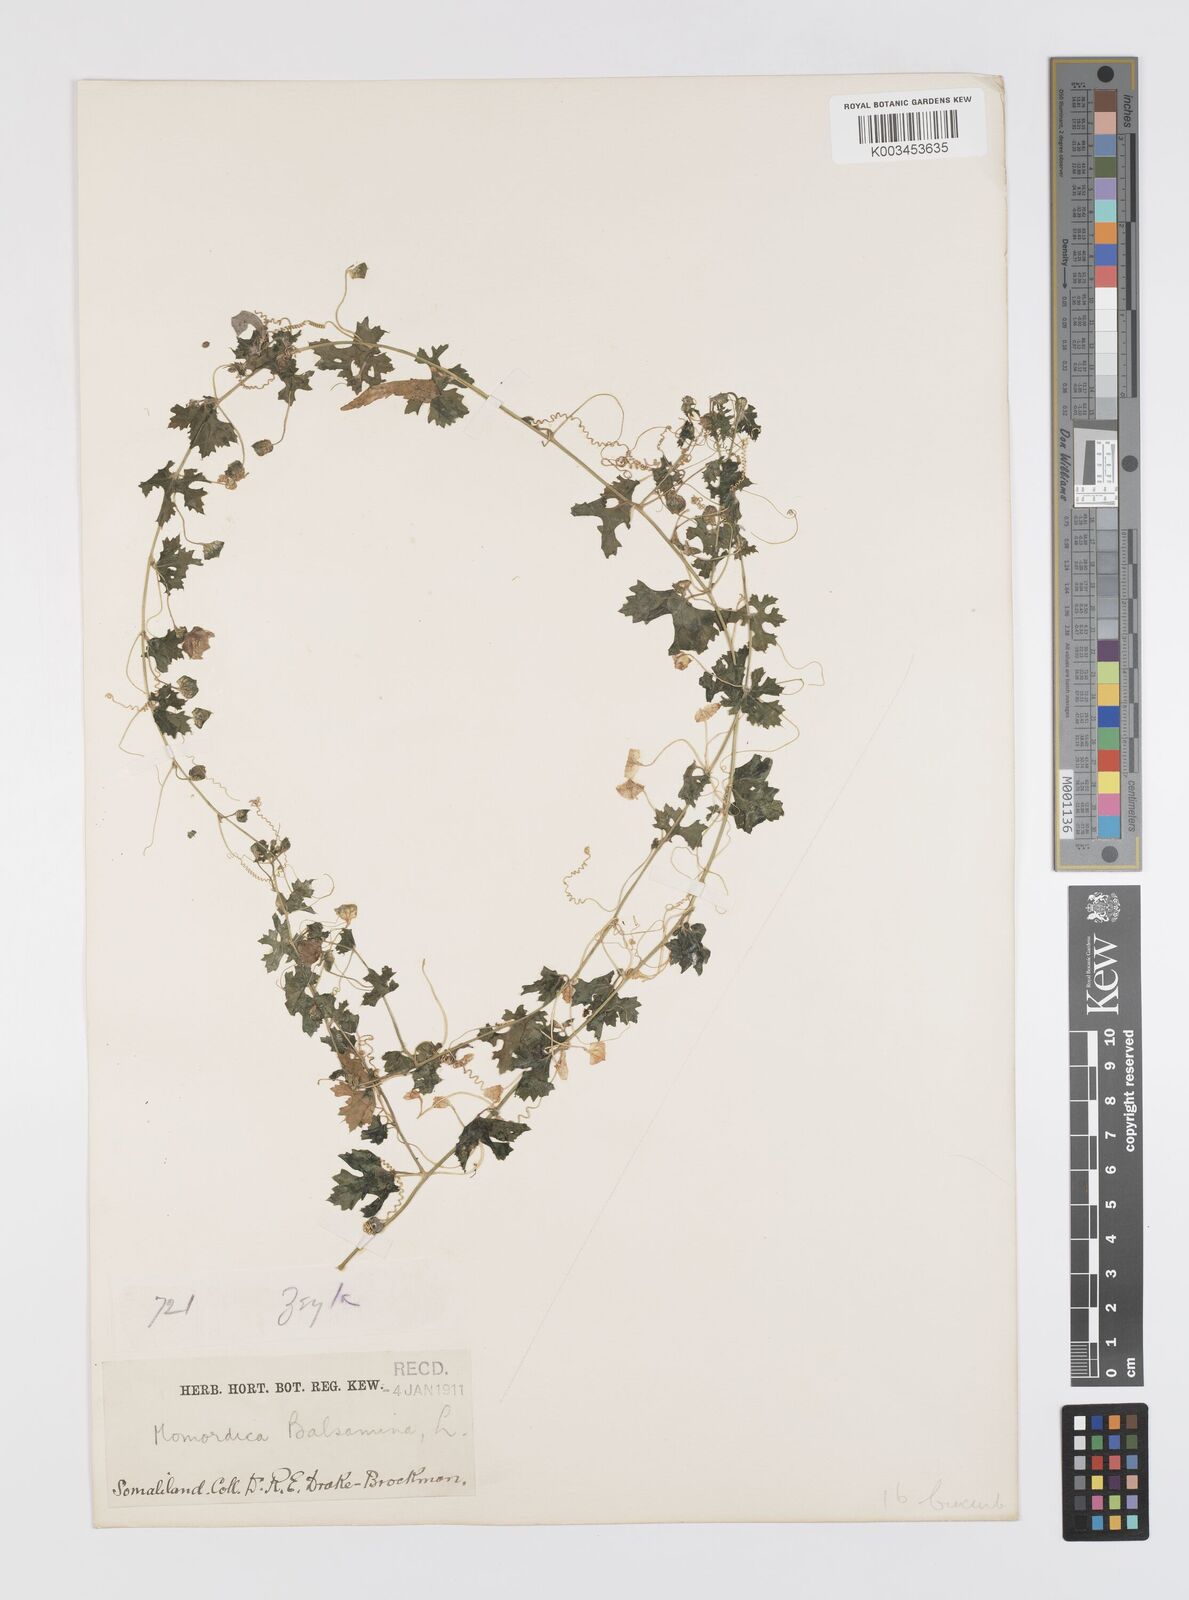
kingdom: Plantae
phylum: Tracheophyta
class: Magnoliopsida
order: Cucurbitales
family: Cucurbitaceae
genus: Momordica
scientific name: Momordica balsamina
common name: Southern balsampear
